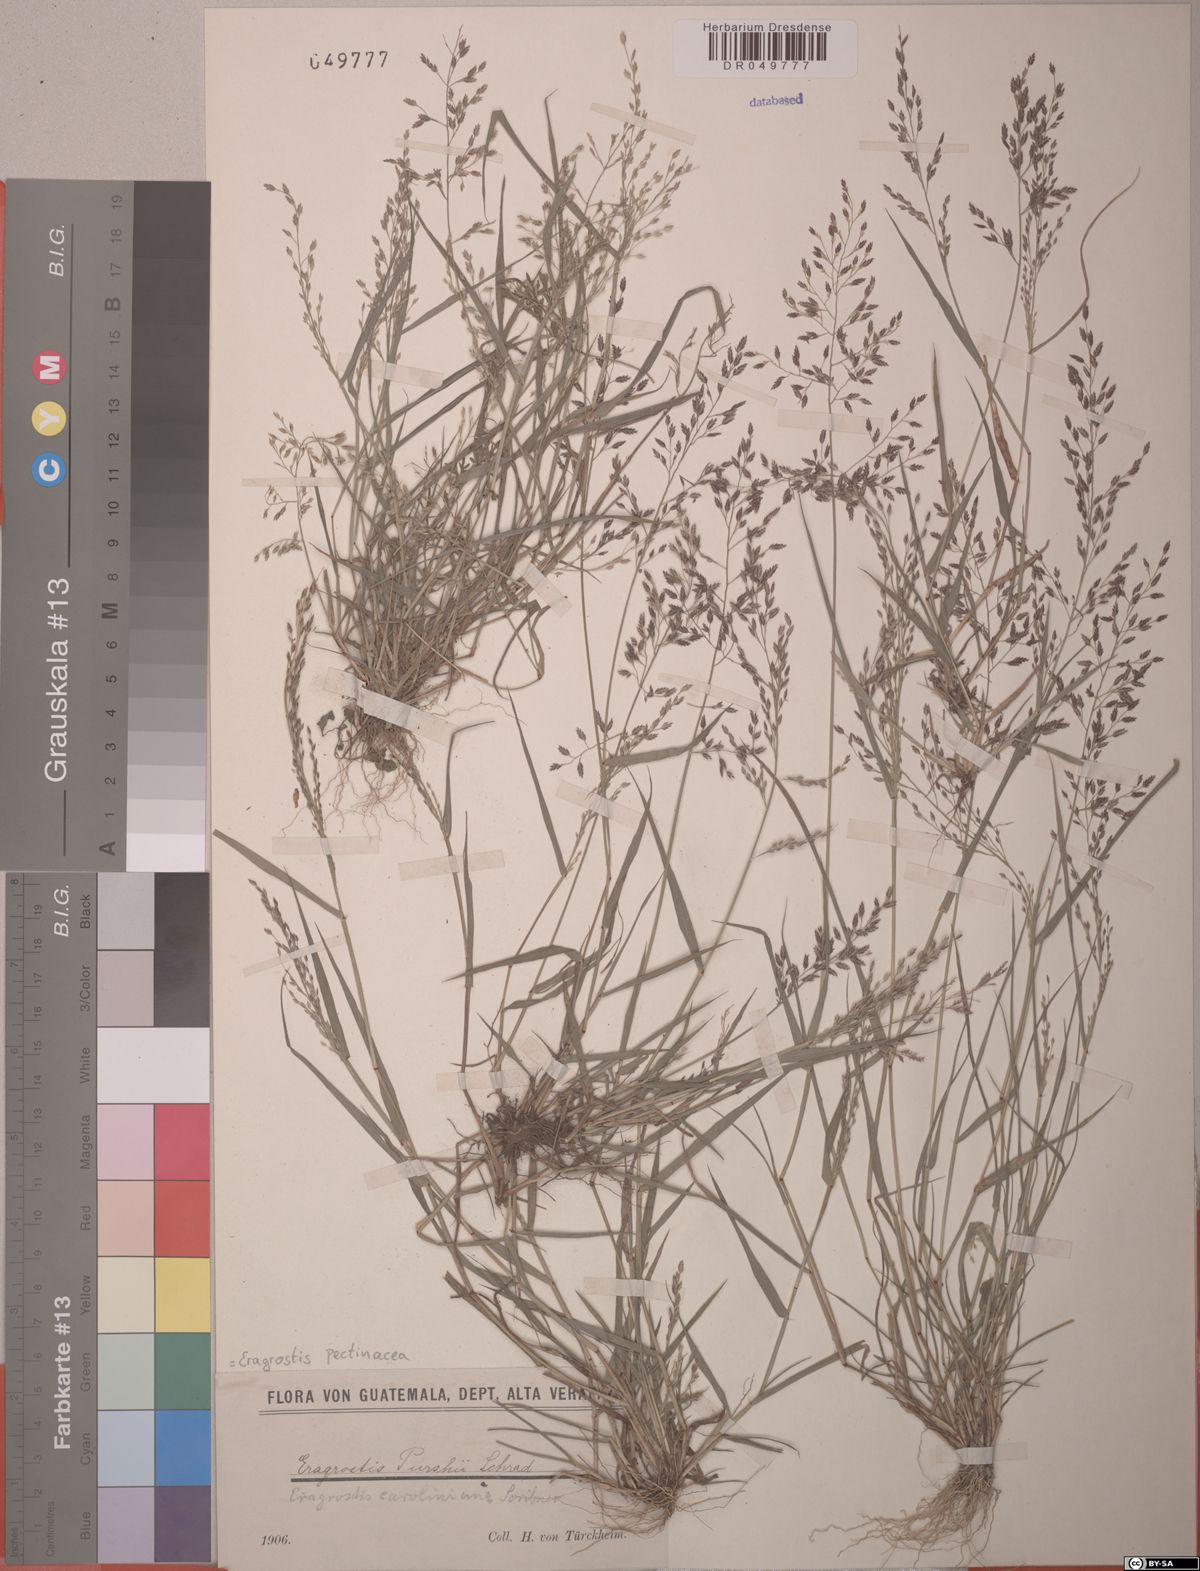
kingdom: Plantae
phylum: Tracheophyta
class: Liliopsida
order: Poales
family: Poaceae
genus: Eragrostis
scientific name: Eragrostis pectinacea
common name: Tufted lovegrass
